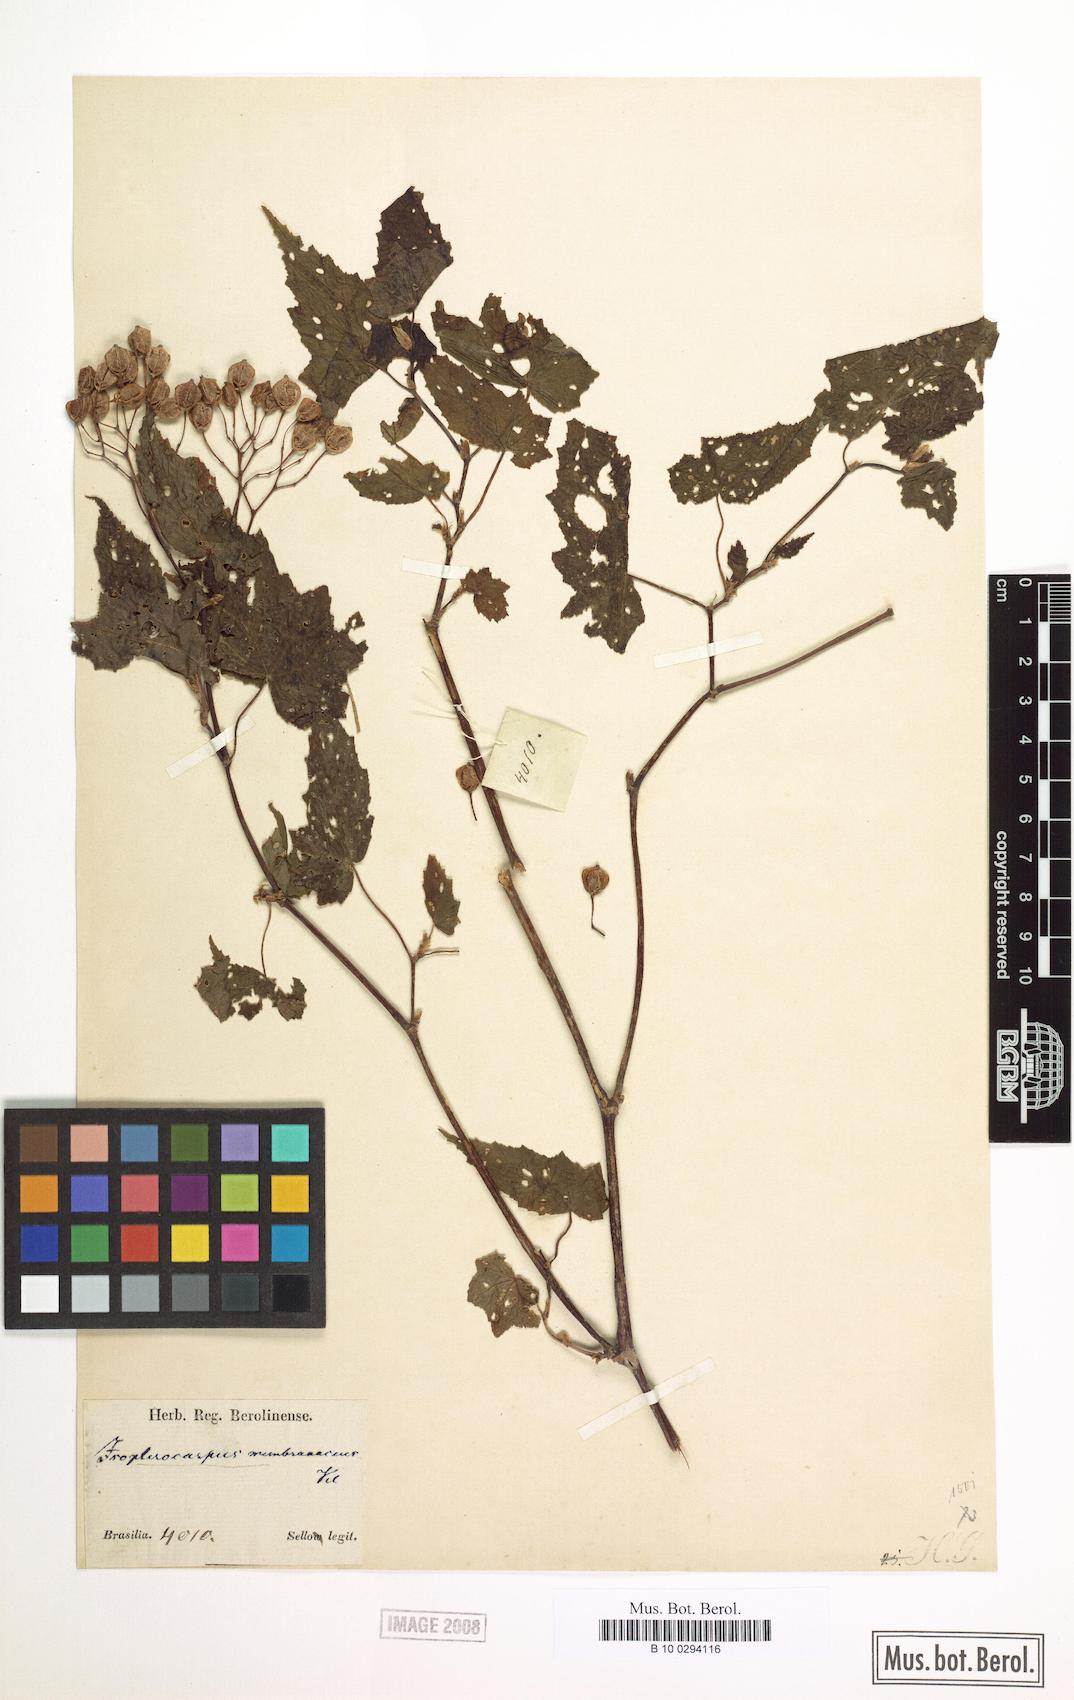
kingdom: Plantae
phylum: Tracheophyta
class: Magnoliopsida
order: Cucurbitales
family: Begoniaceae
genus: Begonia
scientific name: Begonia isopterocarpa
